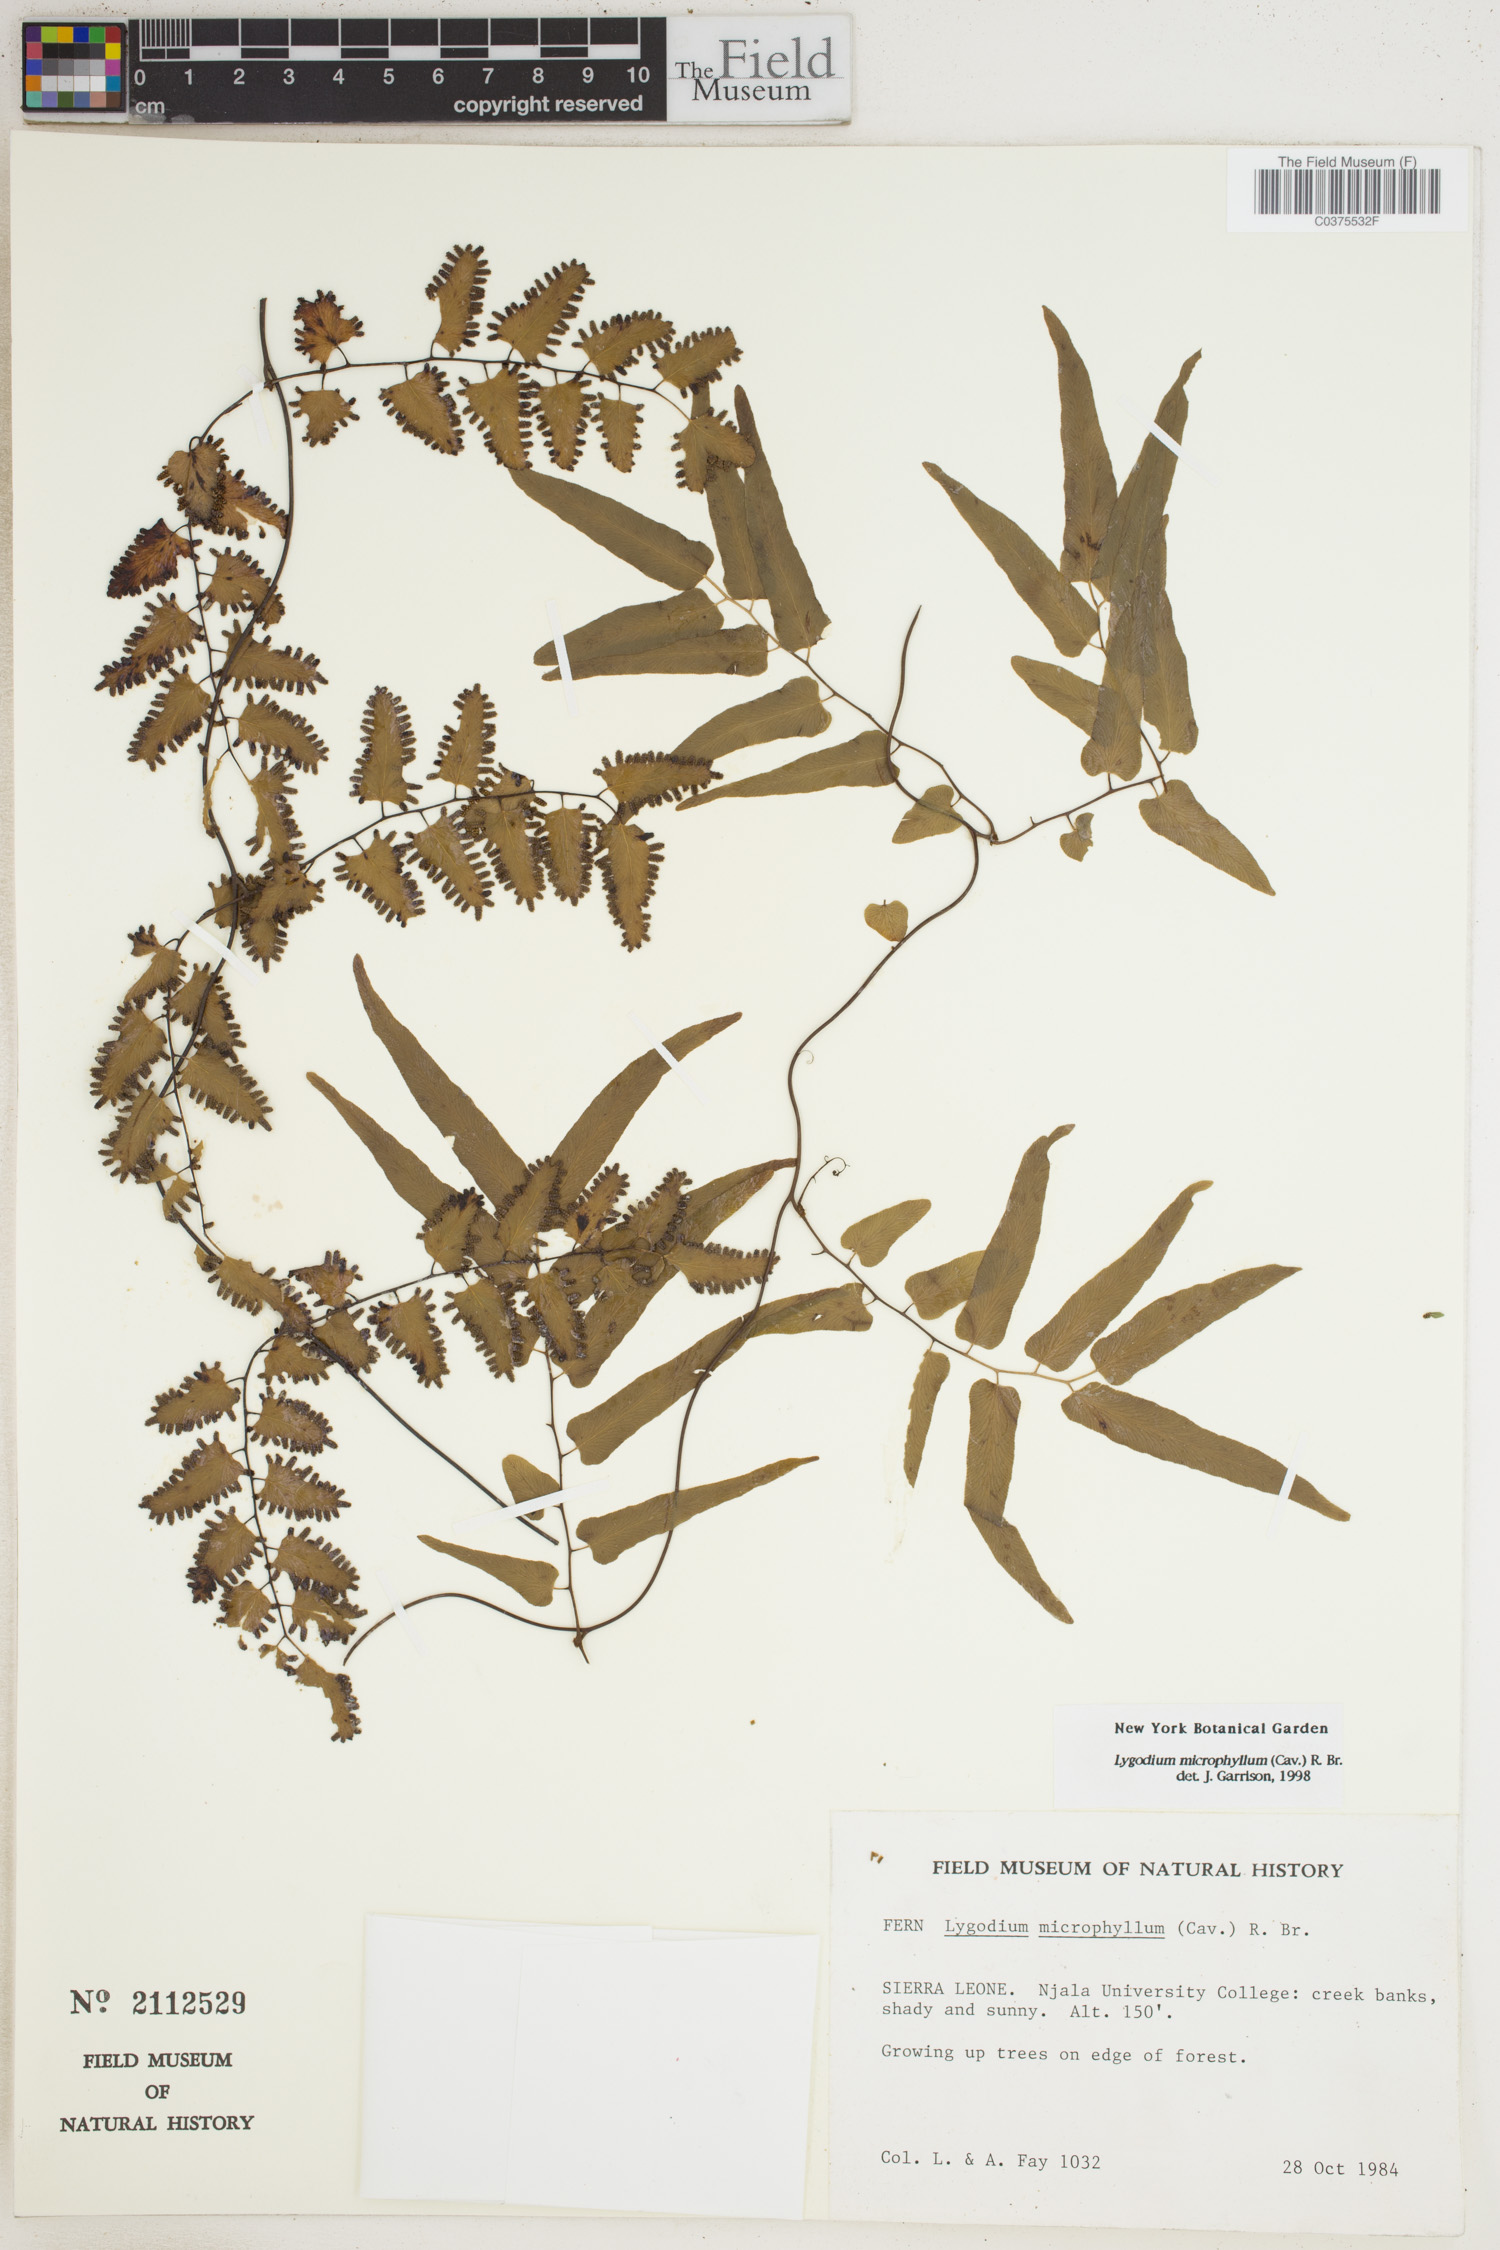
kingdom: Plantae
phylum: Tracheophyta
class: Polypodiopsida
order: Schizaeales
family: Lygodiaceae
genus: Lygodium
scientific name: Lygodium microphyllum
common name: Small-leaf climbing fern
